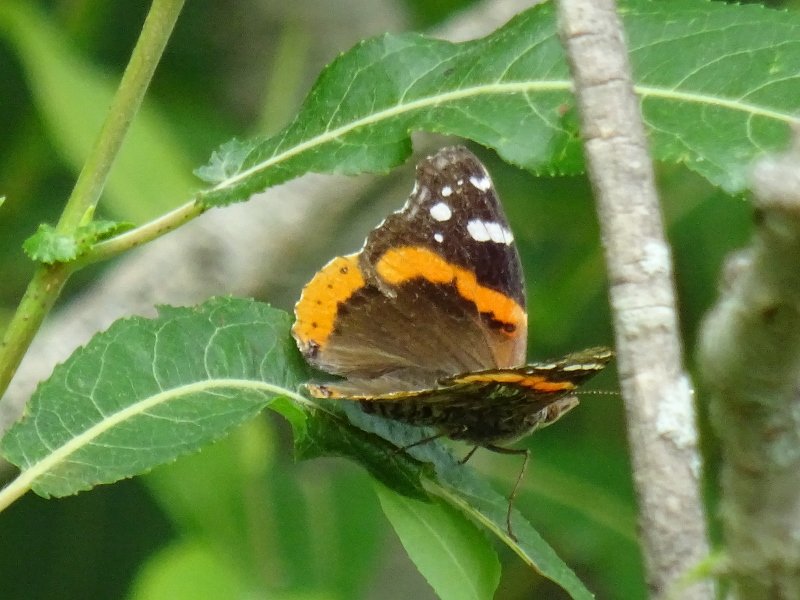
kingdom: Animalia
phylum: Arthropoda
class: Insecta
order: Lepidoptera
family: Nymphalidae
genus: Vanessa
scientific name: Vanessa atalanta
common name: Red Admiral
